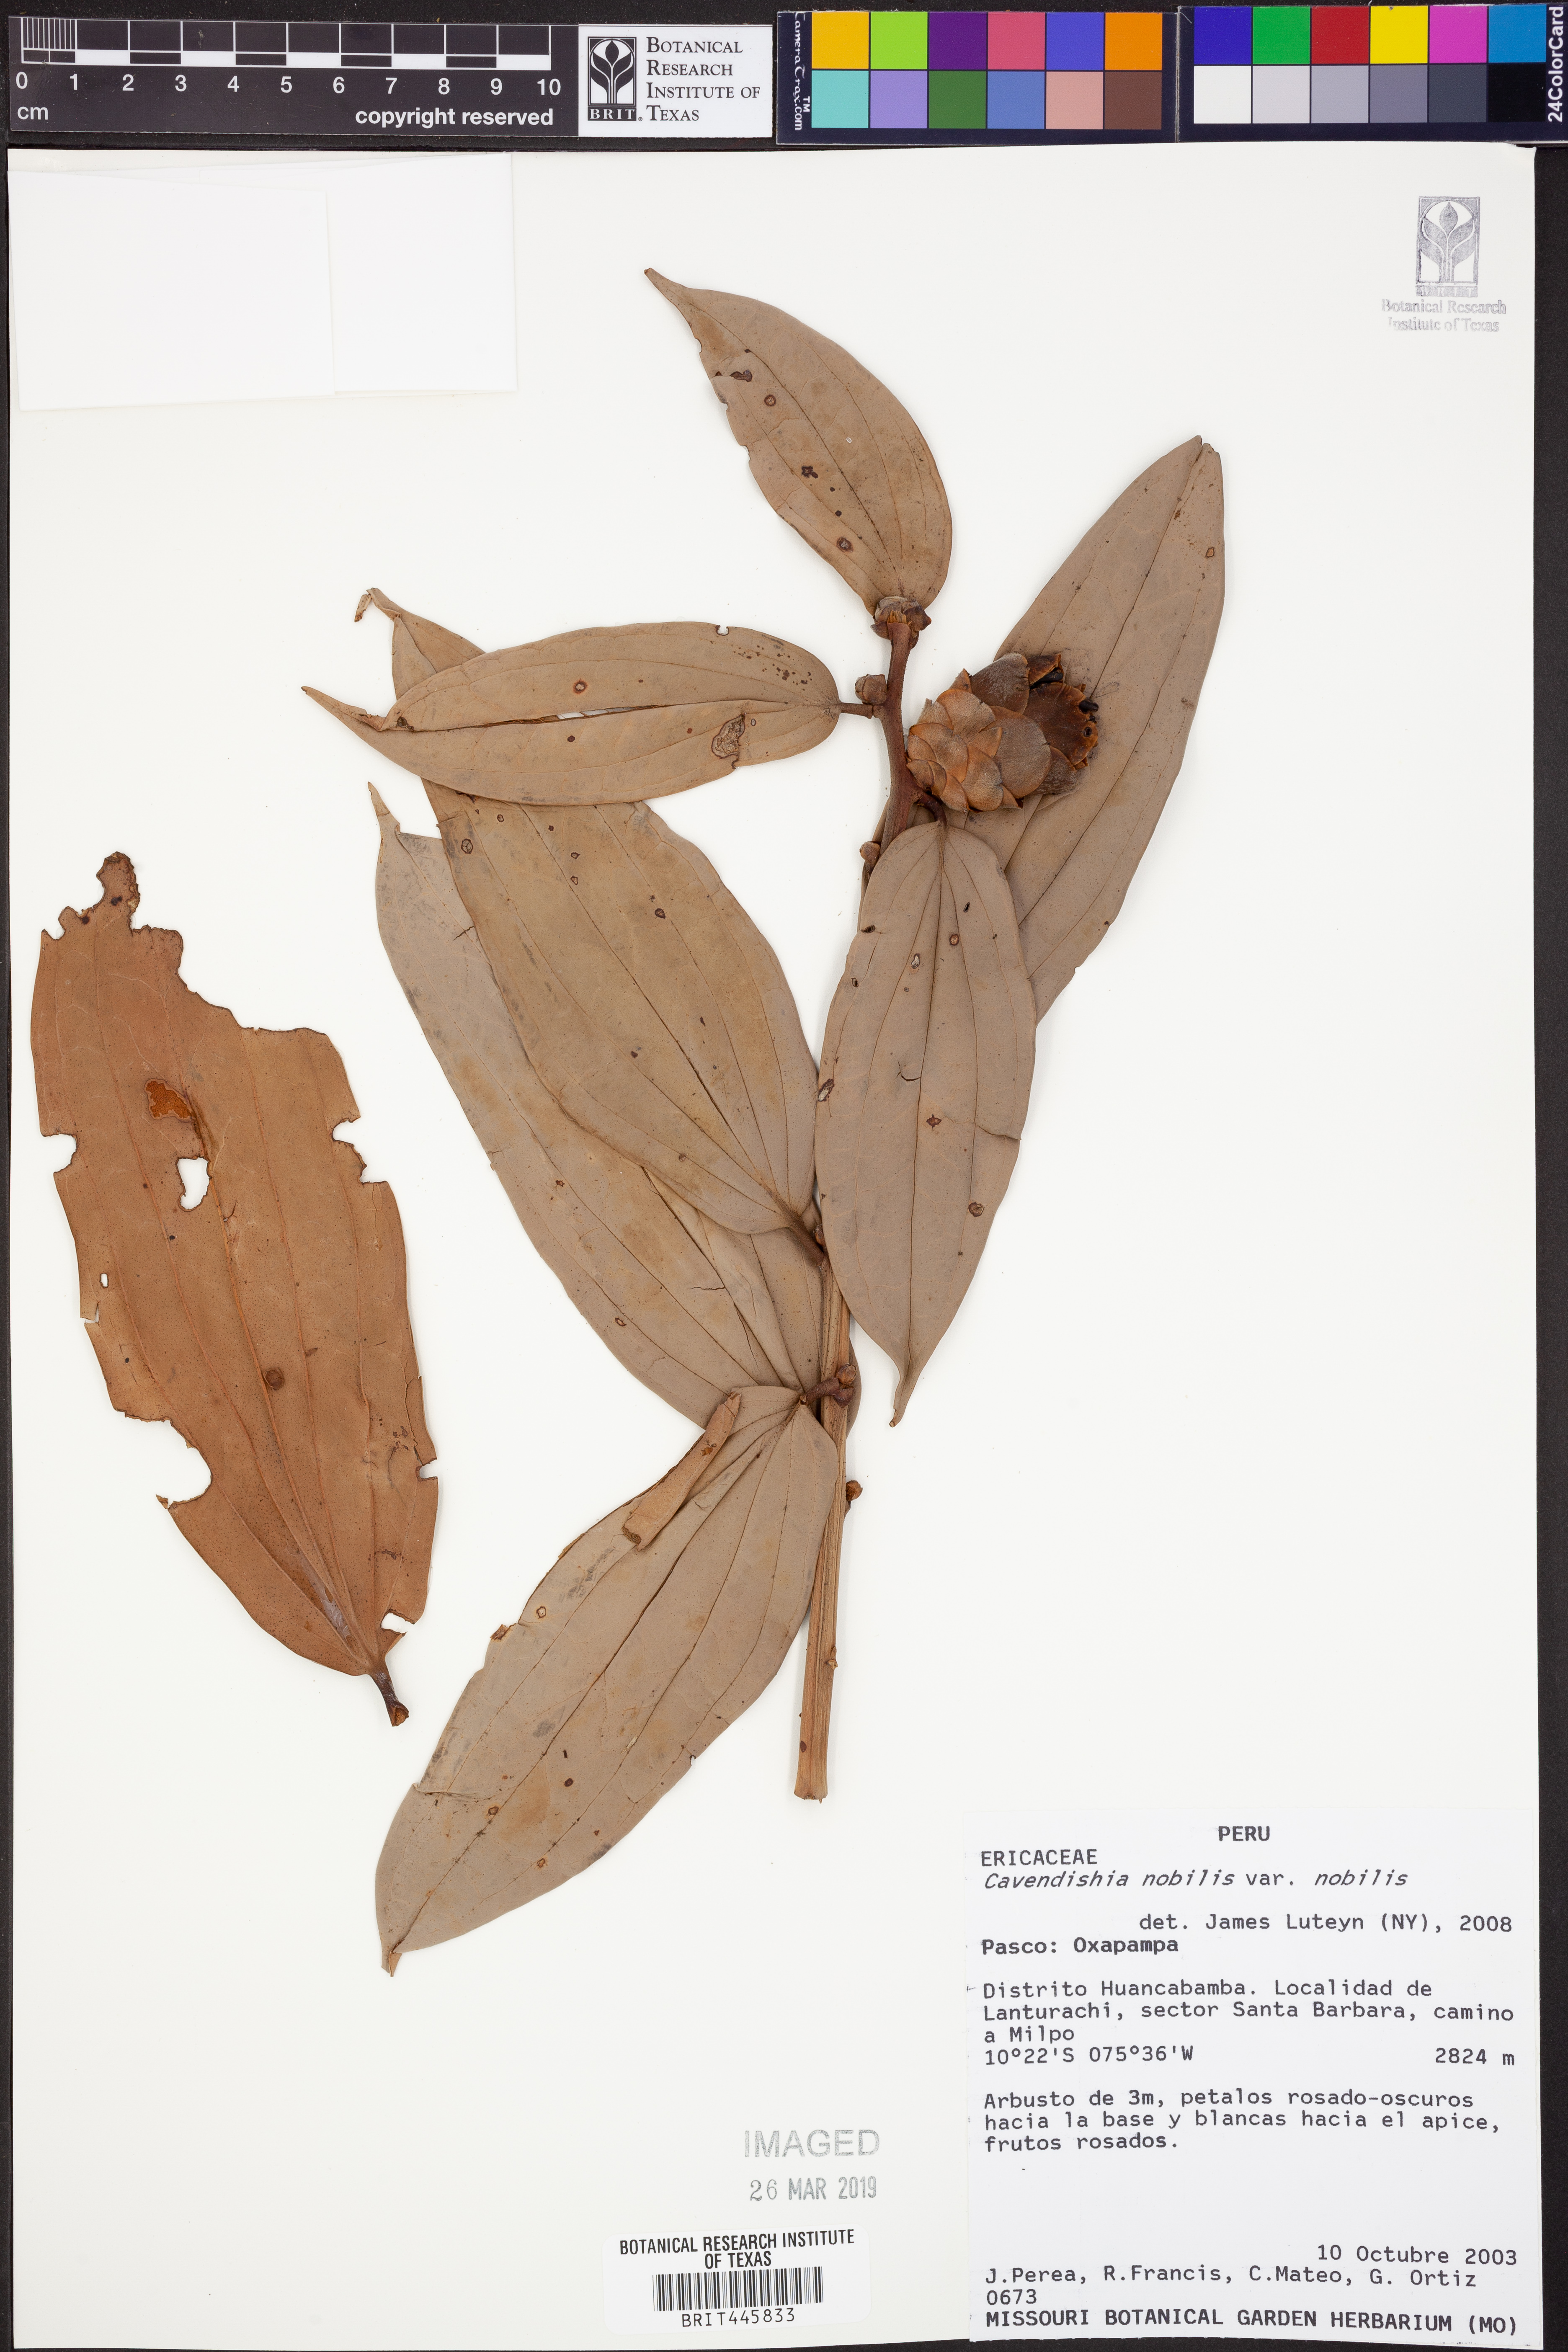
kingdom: Plantae
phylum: Tracheophyta
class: Magnoliopsida
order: Ericales
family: Ericaceae
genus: Cavendishia
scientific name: Cavendishia nobilis
